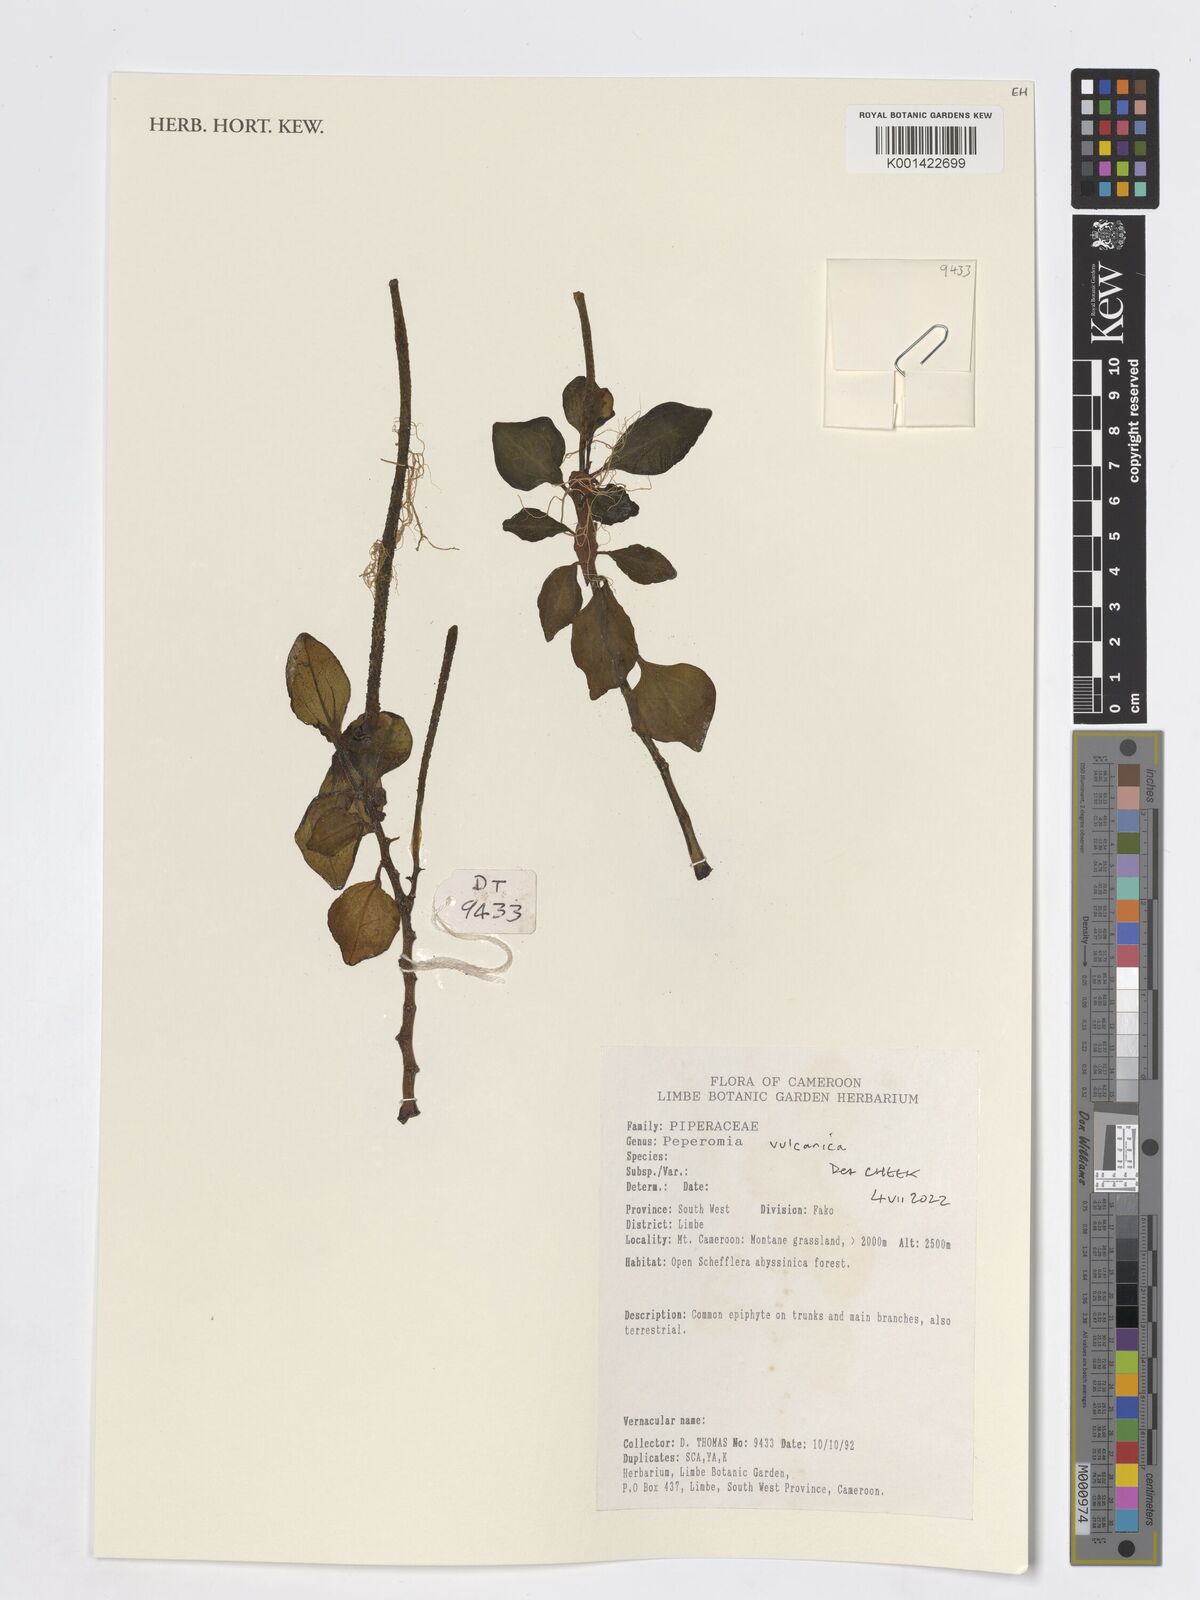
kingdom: Plantae
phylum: Tracheophyta
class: Magnoliopsida
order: Piperales
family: Piperaceae
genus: Peperomia
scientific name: Peperomia vulcanica
